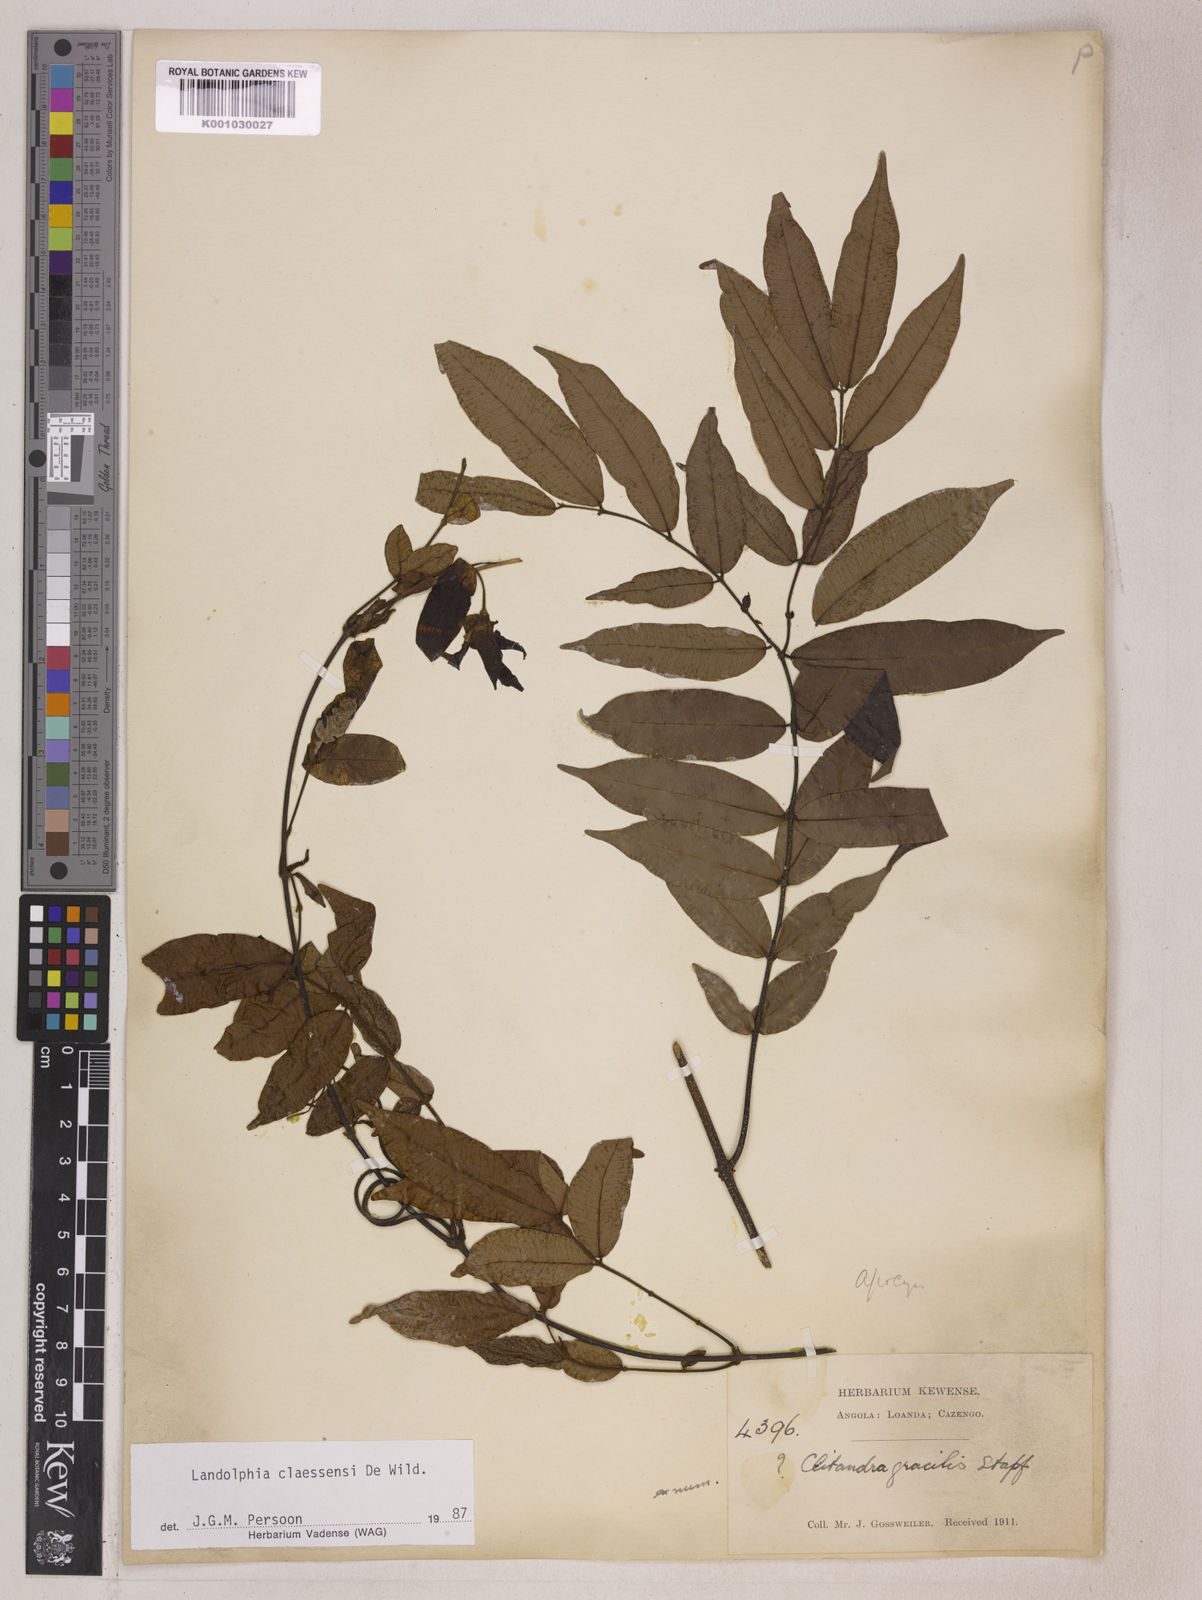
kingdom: Plantae
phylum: Tracheophyta
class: Magnoliopsida
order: Gentianales
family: Apocynaceae
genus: Landolphia
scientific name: Landolphia parvifolia
